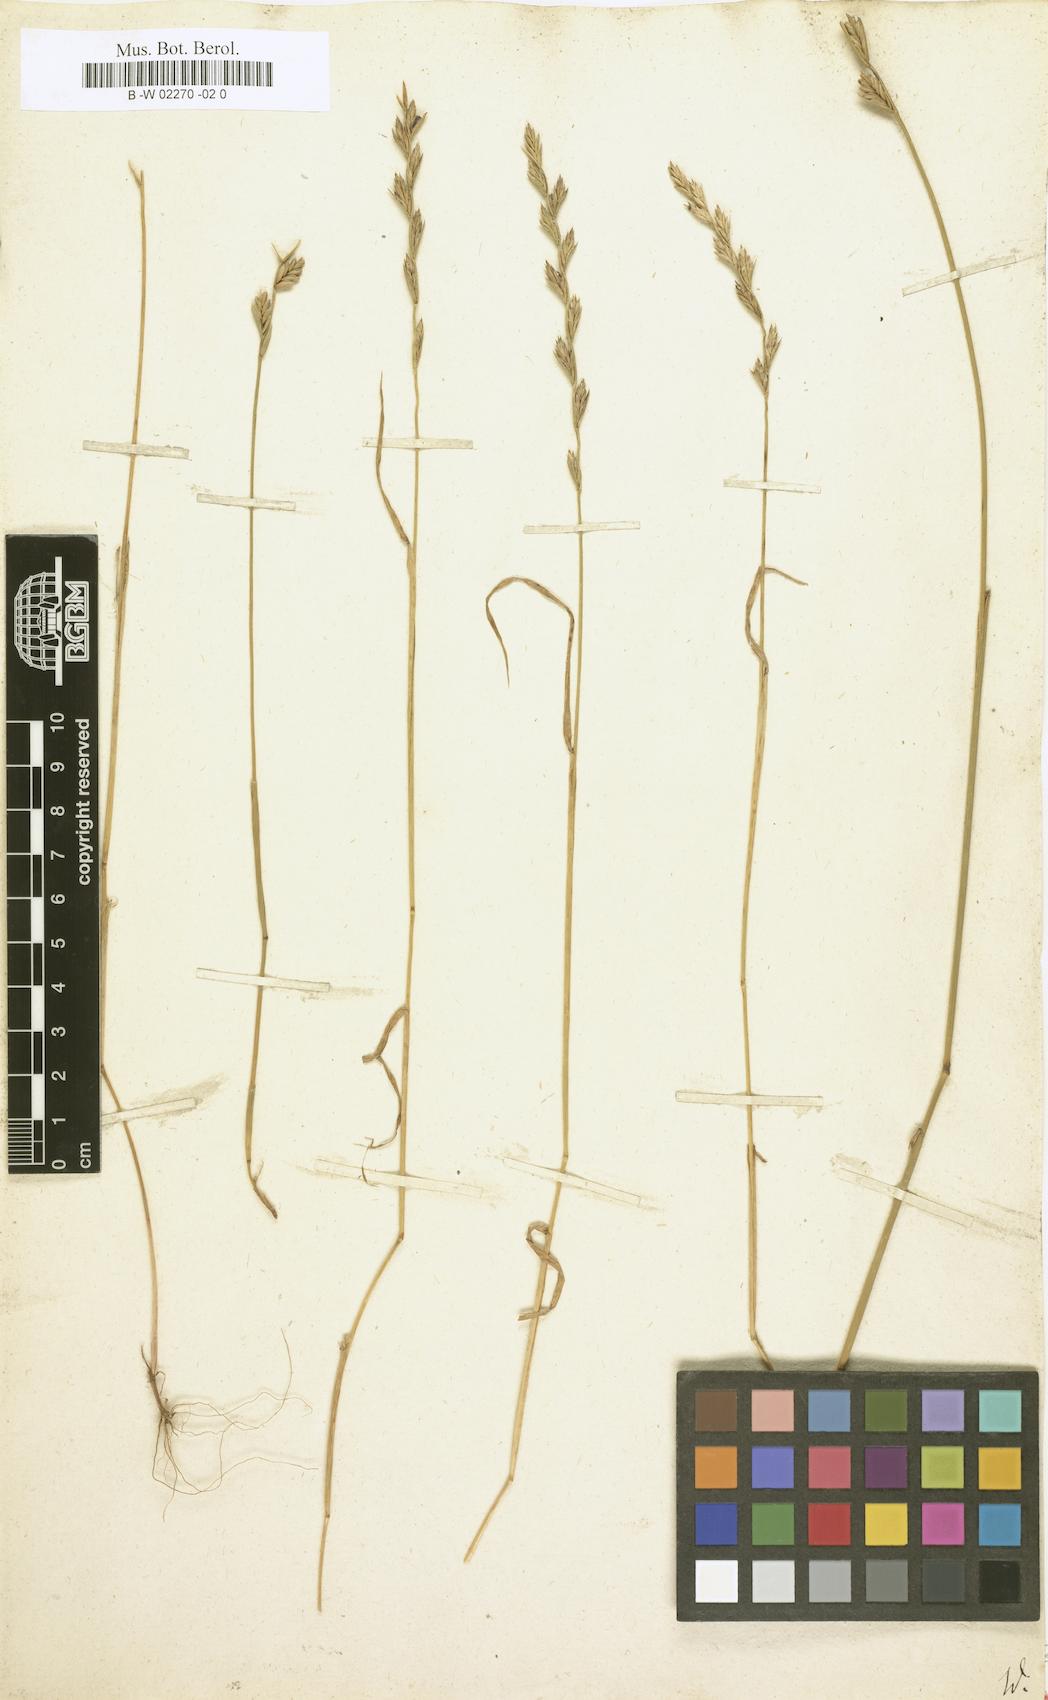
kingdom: Plantae
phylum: Tracheophyta
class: Liliopsida
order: Poales
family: Poaceae
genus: Lolium
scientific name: Lolium temulentum
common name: Darnel
